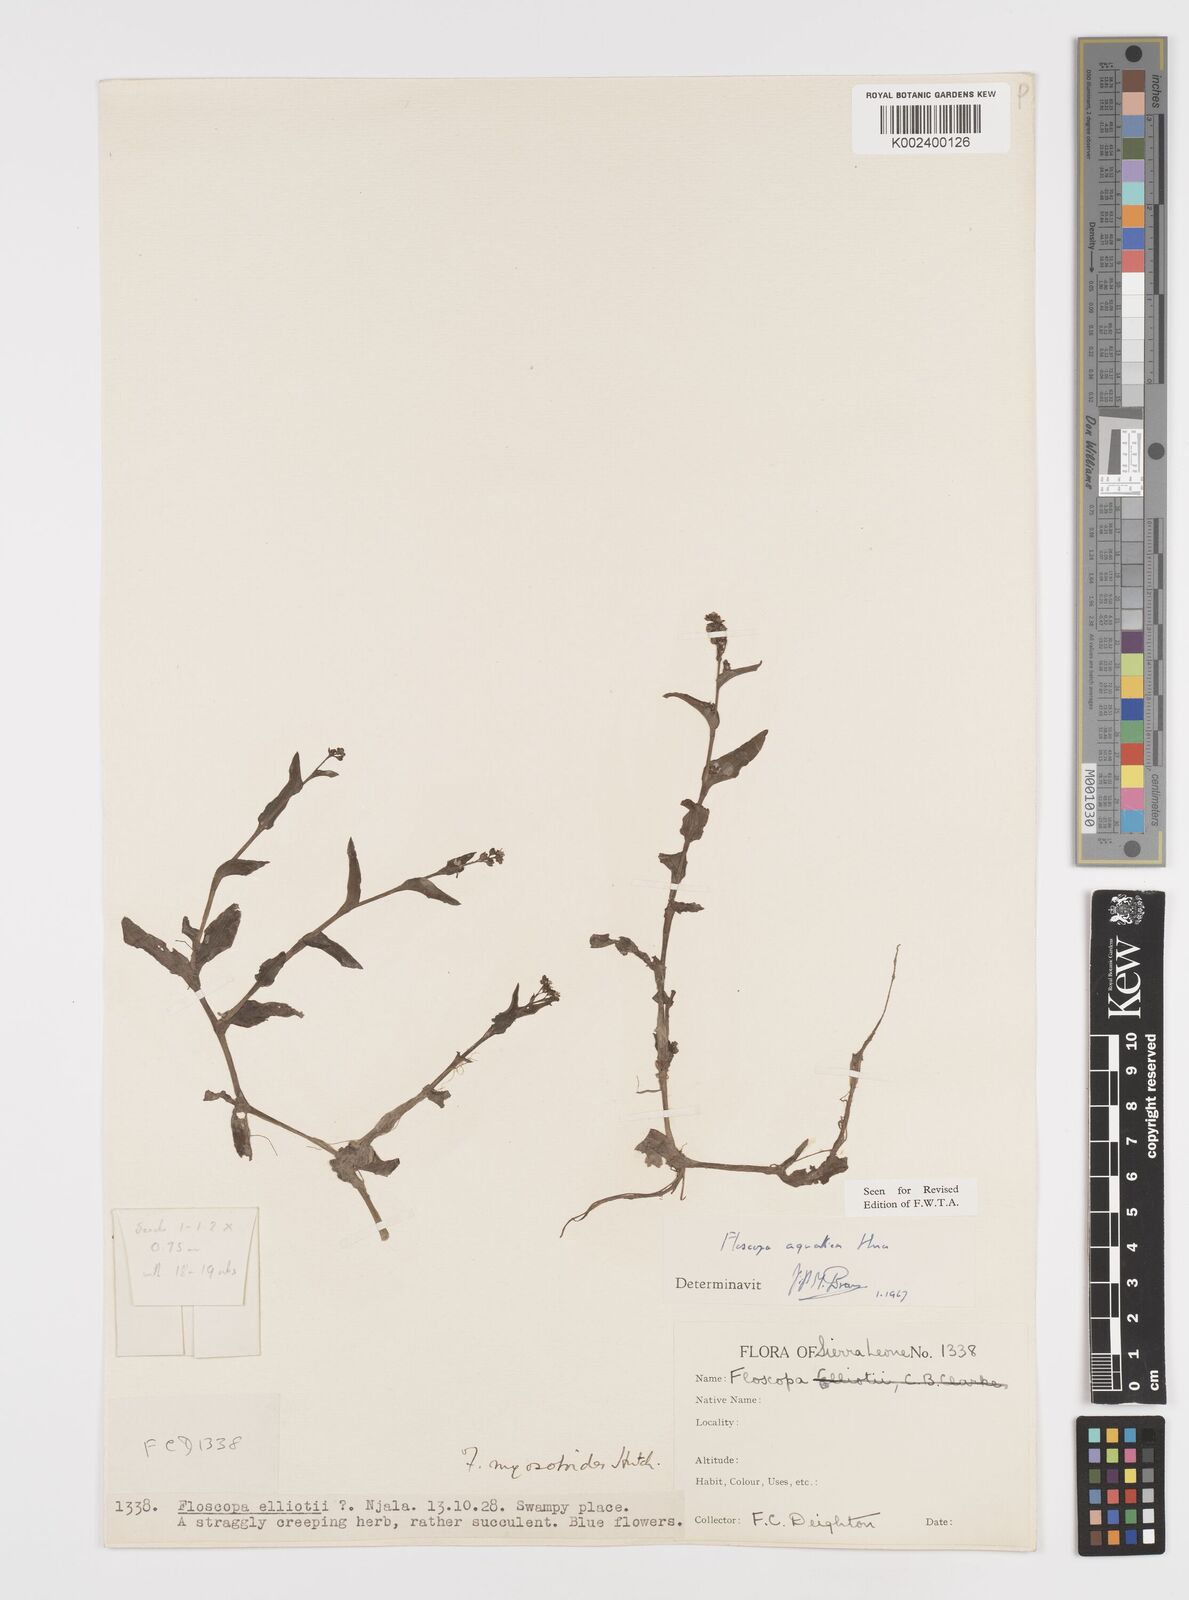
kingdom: Plantae
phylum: Tracheophyta
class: Liliopsida
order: Commelinales
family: Commelinaceae
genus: Floscopa
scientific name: Floscopa aquatica
